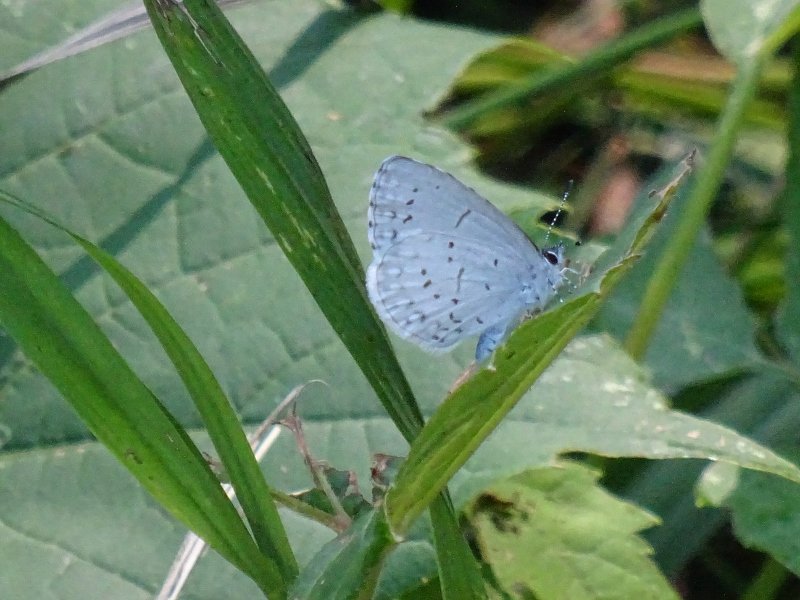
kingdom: Animalia
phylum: Arthropoda
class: Insecta
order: Lepidoptera
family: Lycaenidae
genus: Celastrina
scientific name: Celastrina
